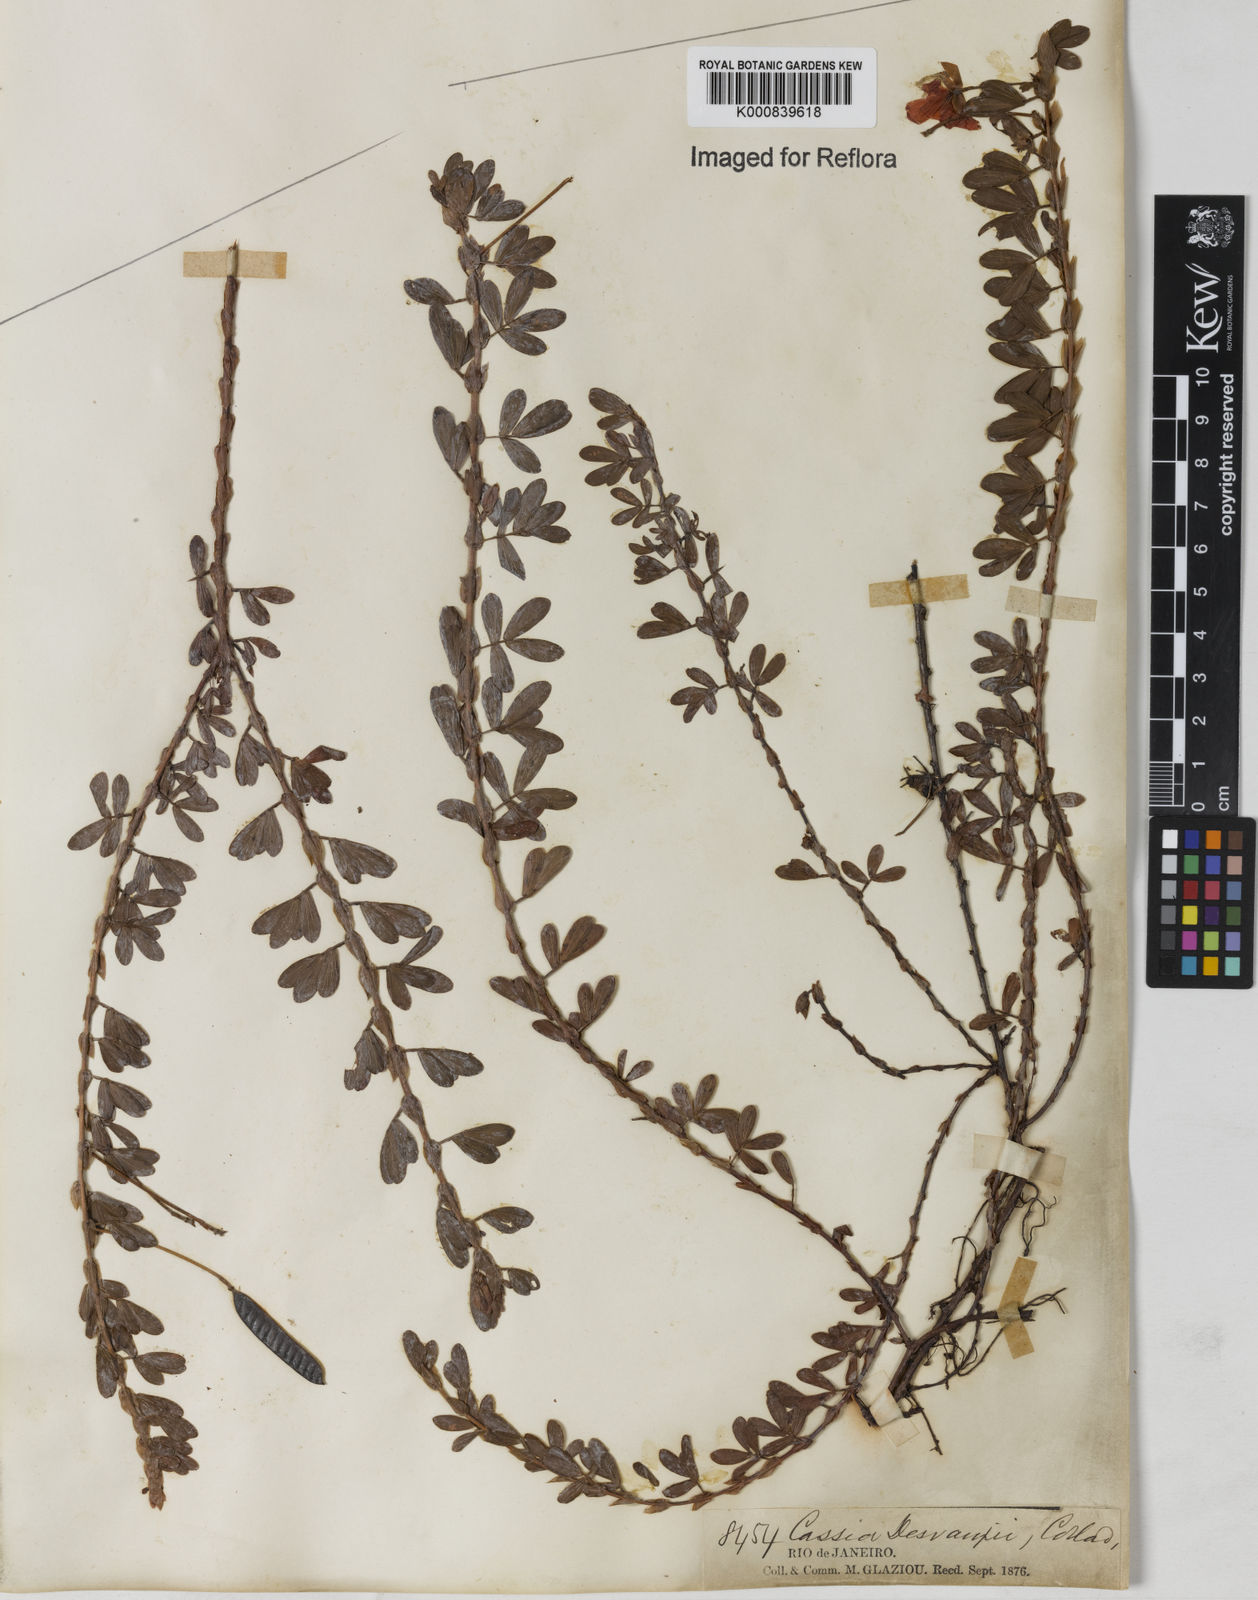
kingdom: Plantae
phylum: Tracheophyta
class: Magnoliopsida
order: Fabales
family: Fabaceae
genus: Chamaecrista
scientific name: Chamaecrista desvauxii
